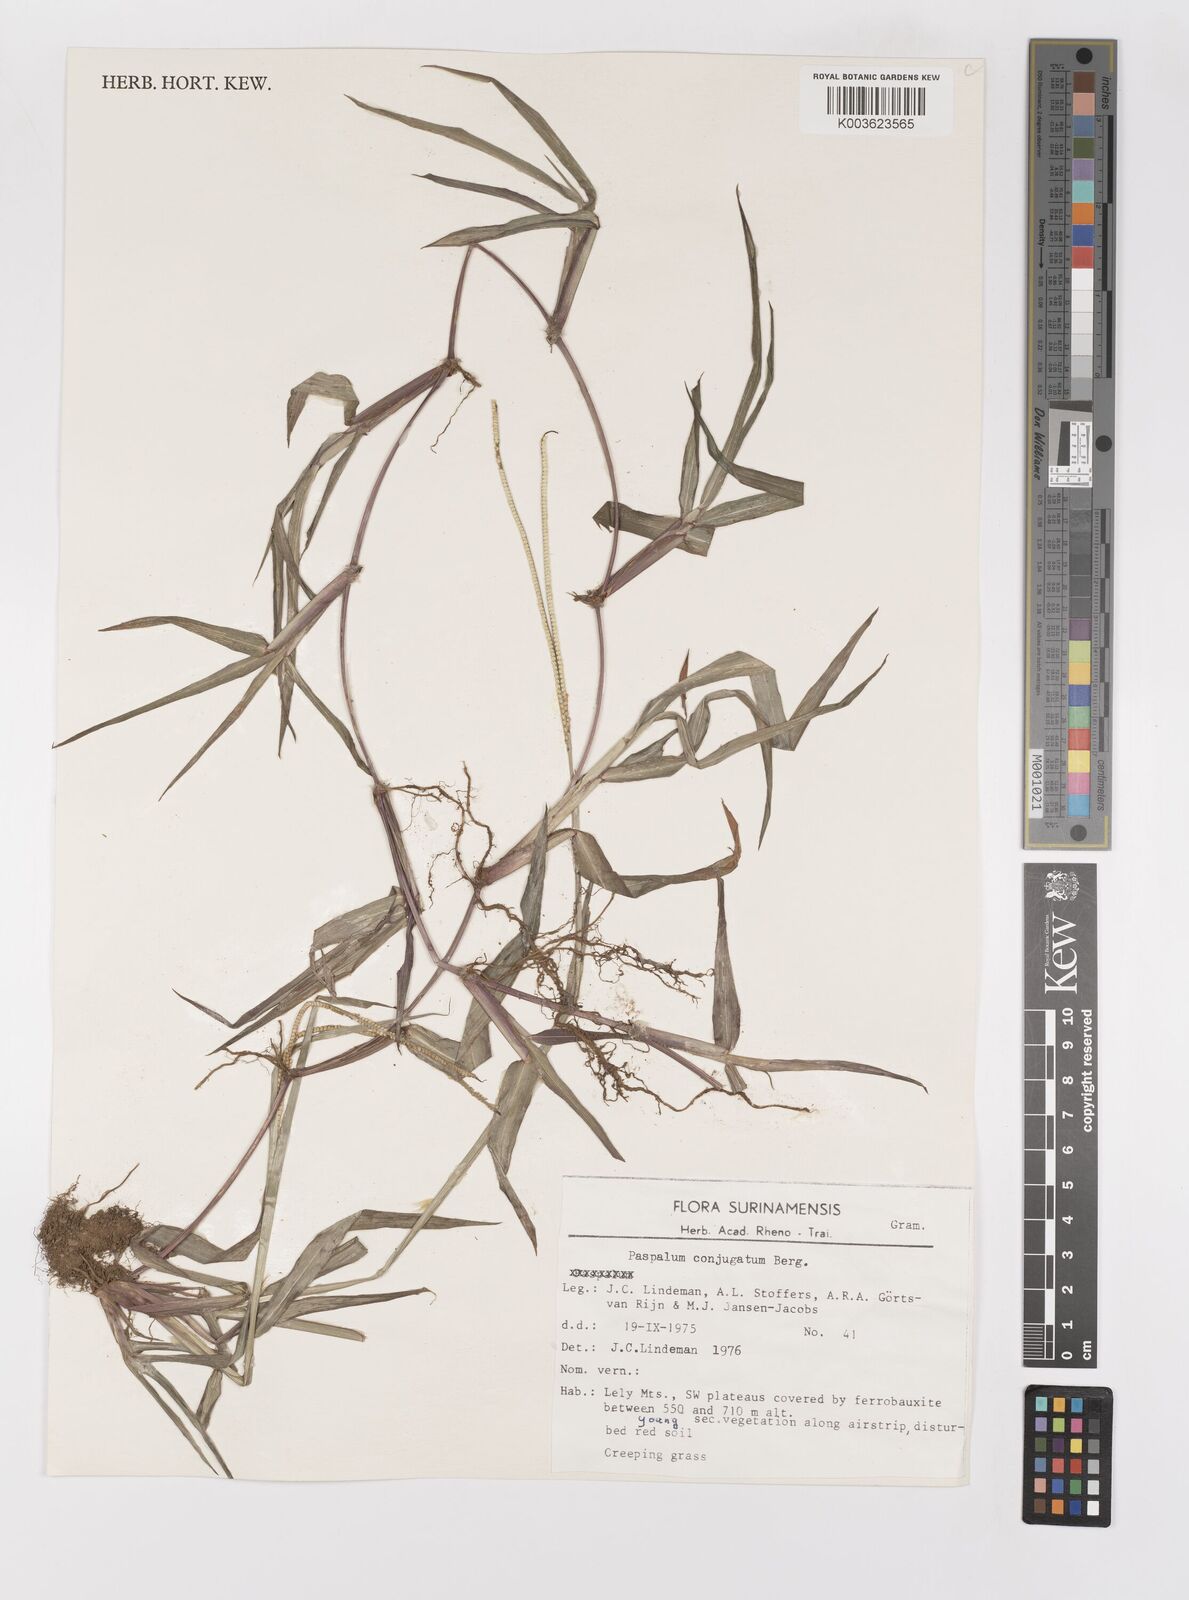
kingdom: Plantae
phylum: Tracheophyta
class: Liliopsida
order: Poales
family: Poaceae
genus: Paspalum
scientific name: Paspalum conjugatum
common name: Hilograss
